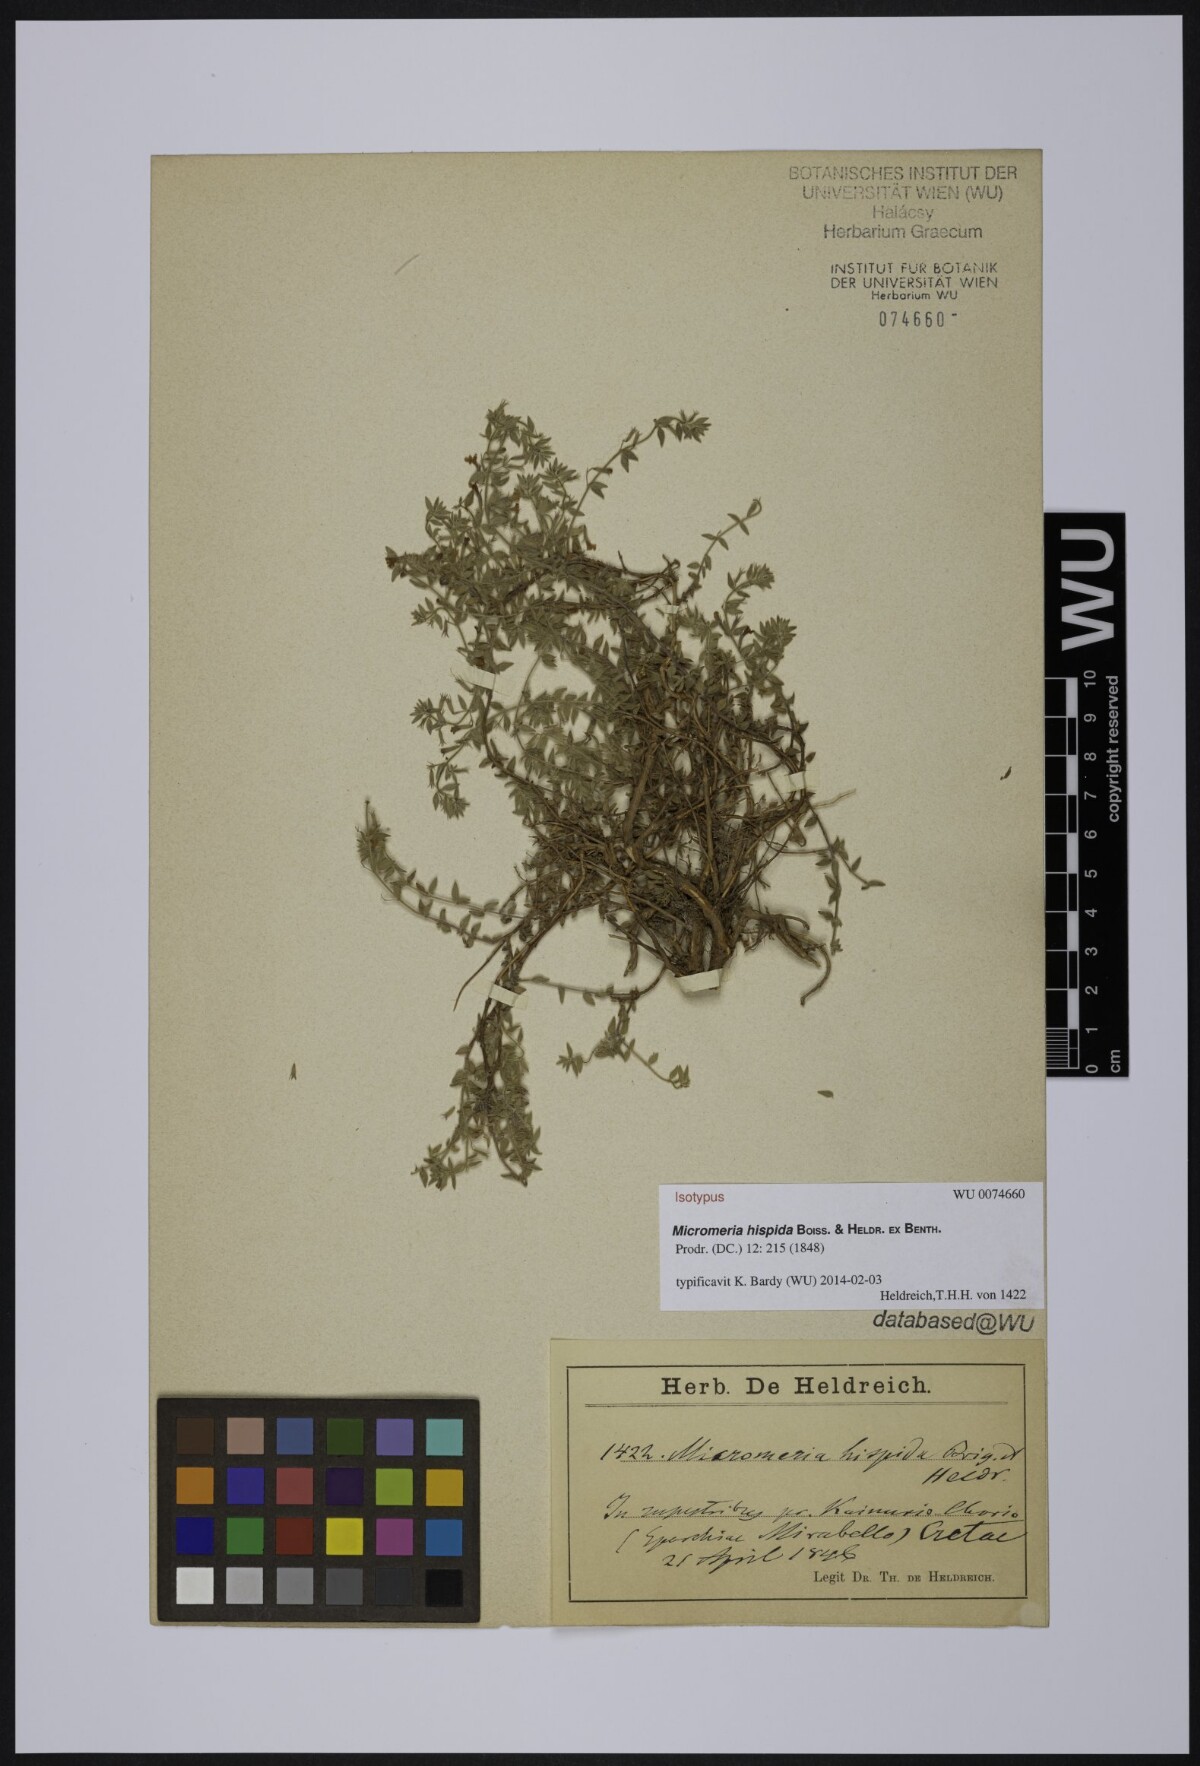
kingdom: Plantae
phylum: Tracheophyta
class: Magnoliopsida
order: Lamiales
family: Lamiaceae
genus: Micromeria
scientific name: Micromeria hispida
